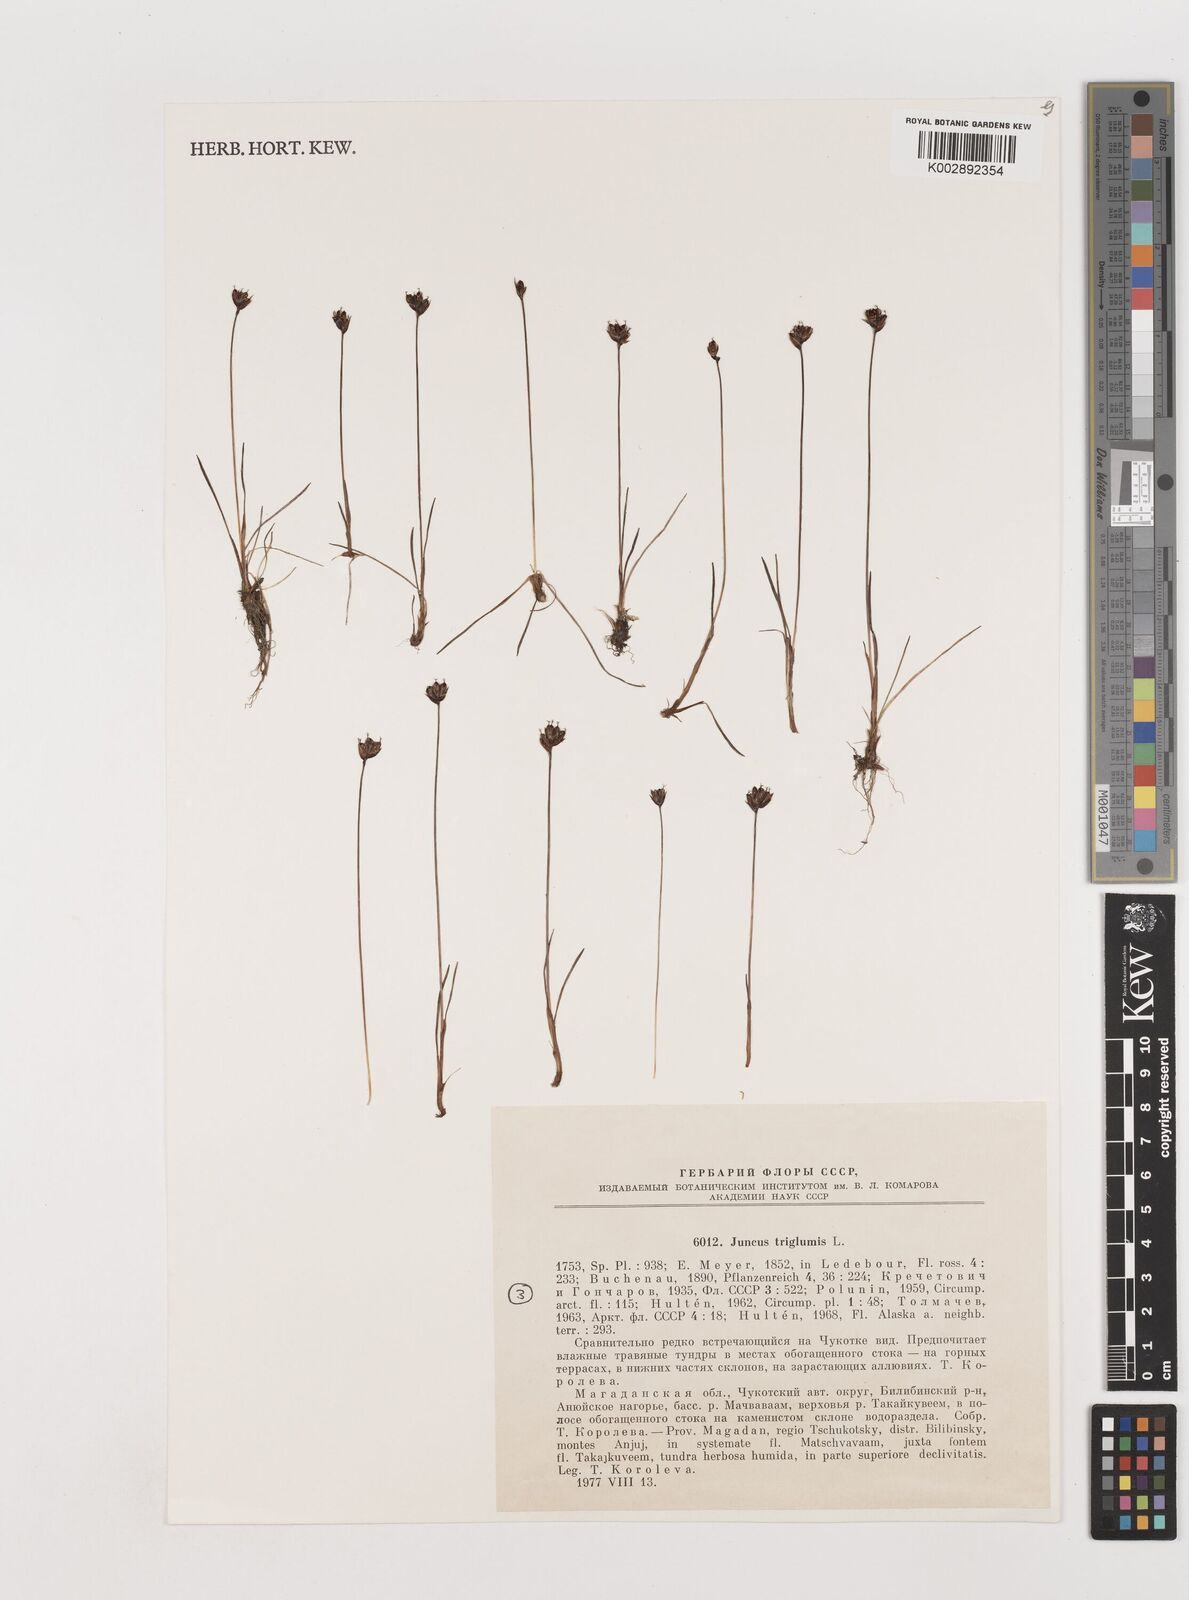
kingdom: Plantae
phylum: Tracheophyta
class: Liliopsida
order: Poales
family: Juncaceae
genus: Juncus
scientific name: Juncus triglumis
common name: Three-flowered rush
